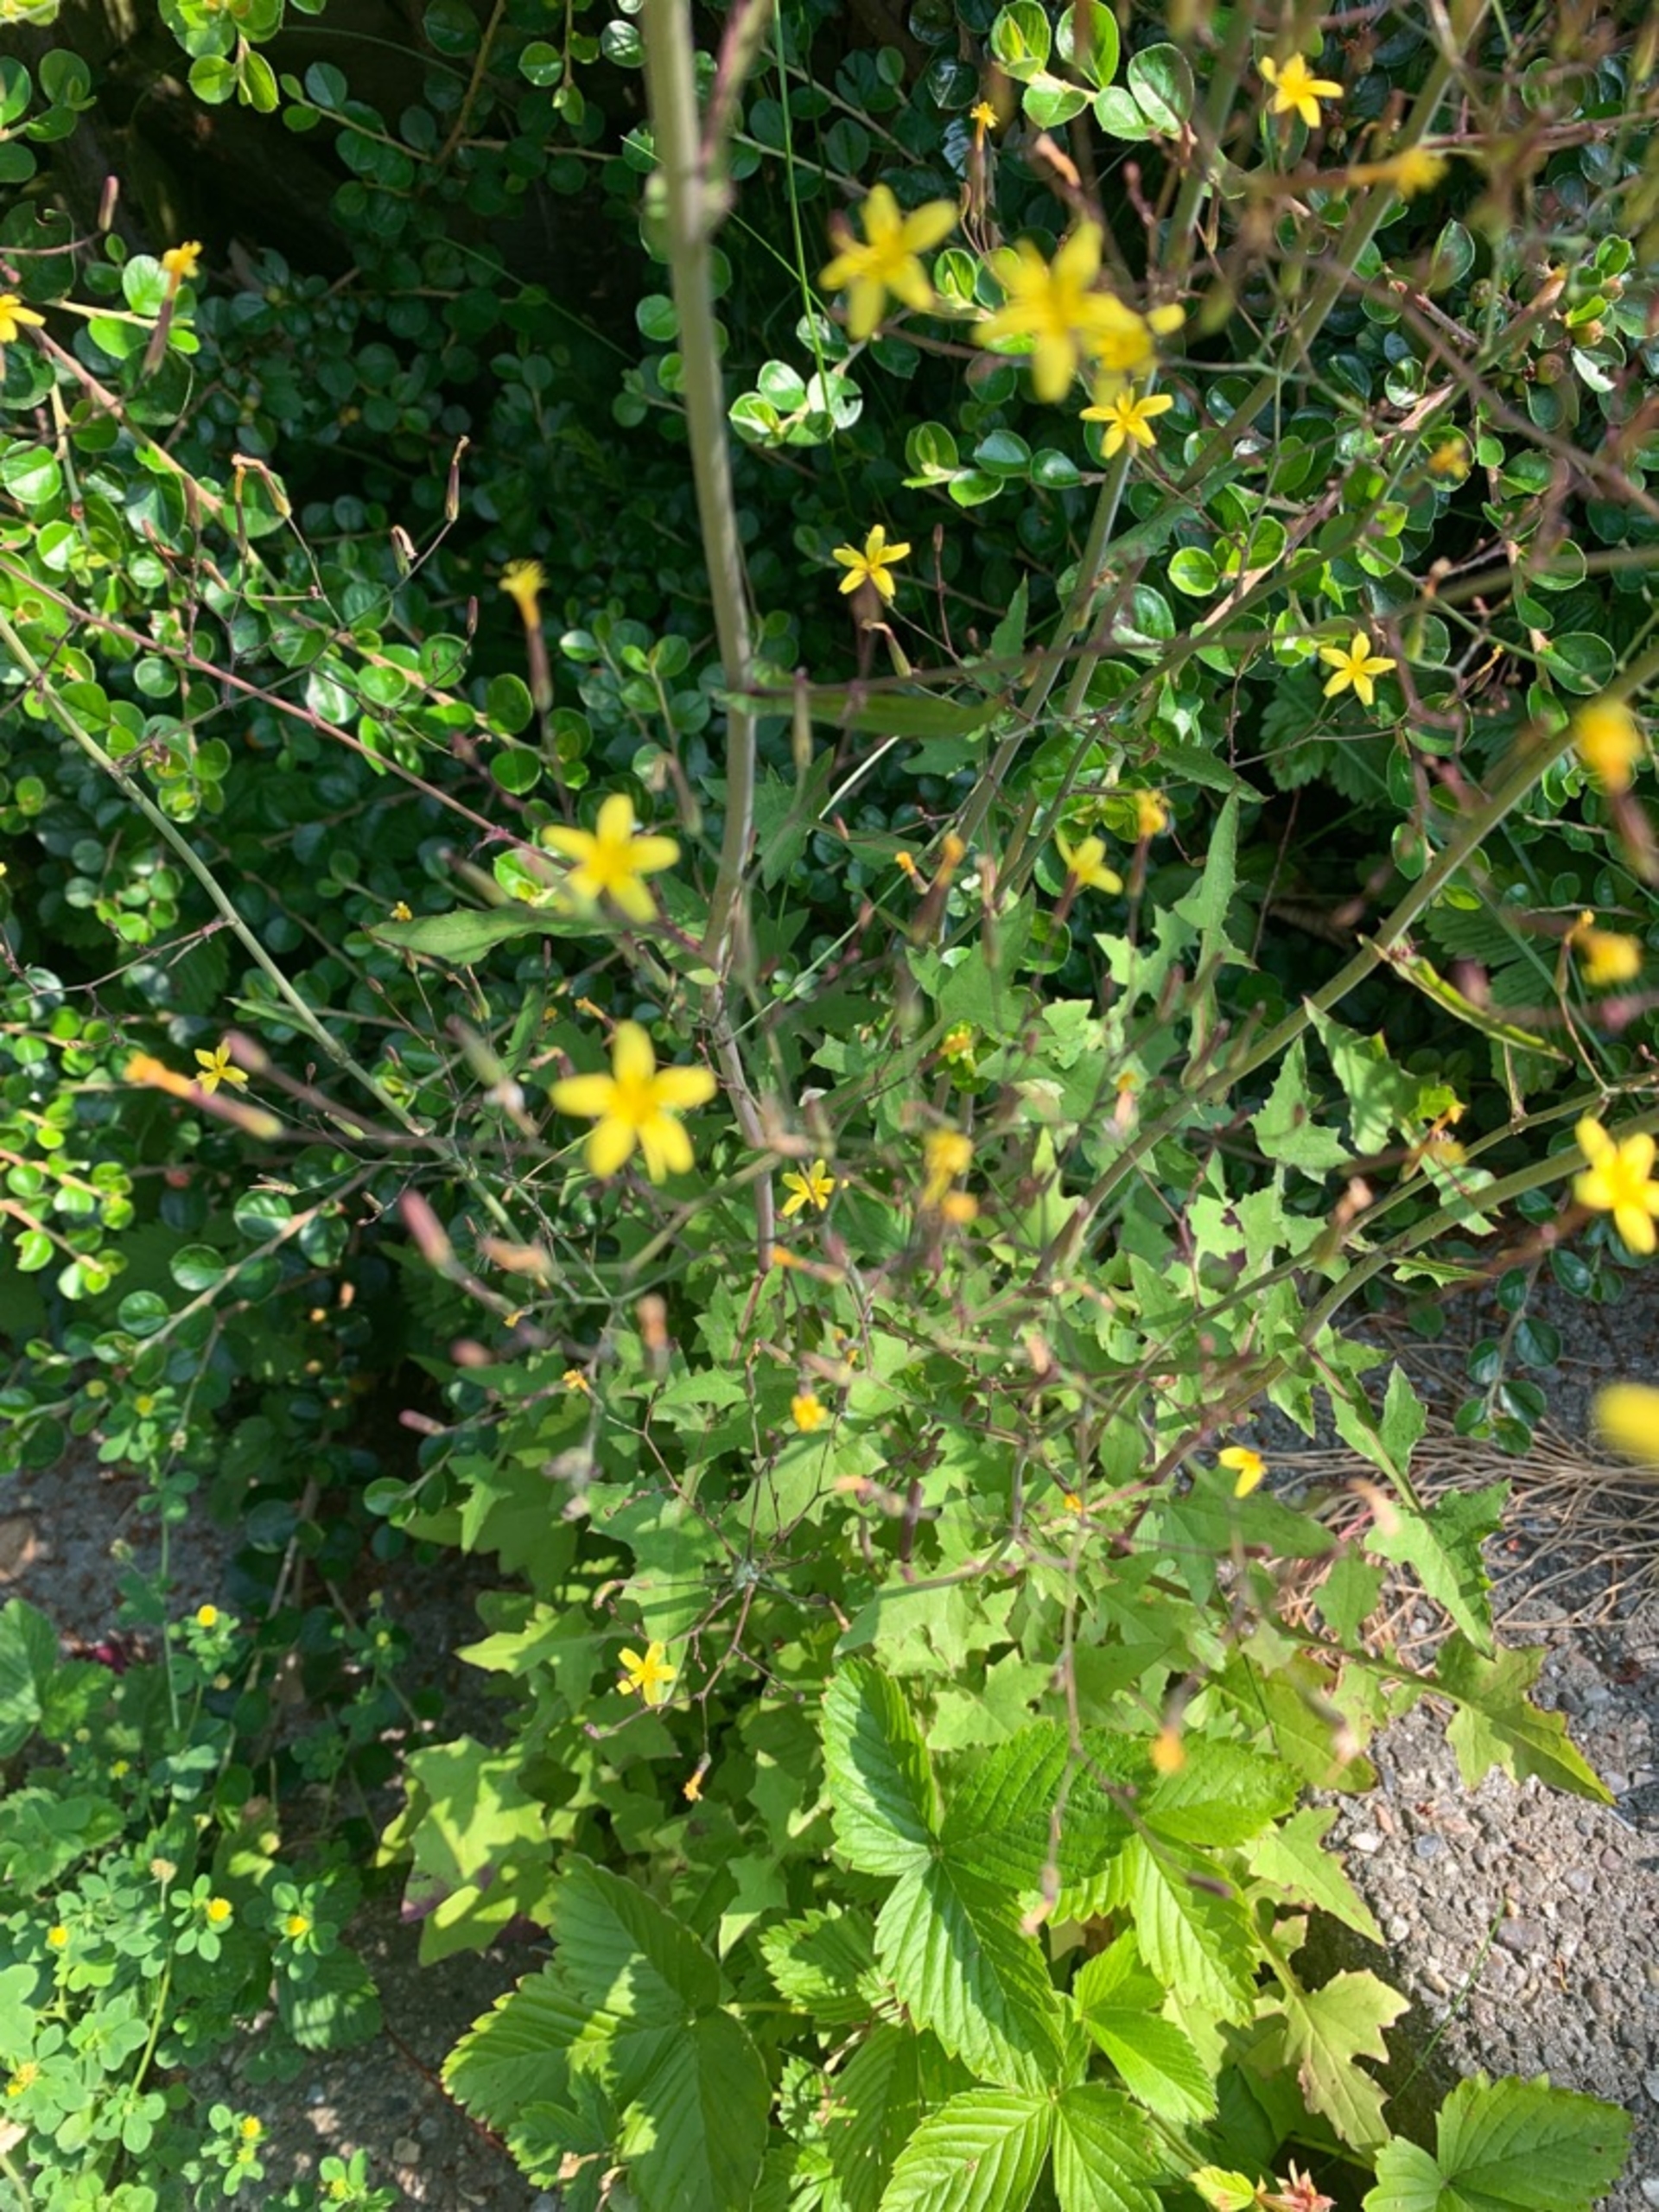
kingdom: Plantae
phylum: Tracheophyta
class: Magnoliopsida
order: Asterales
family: Asteraceae
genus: Mycelis
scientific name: Mycelis muralis
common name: Skov-salat
